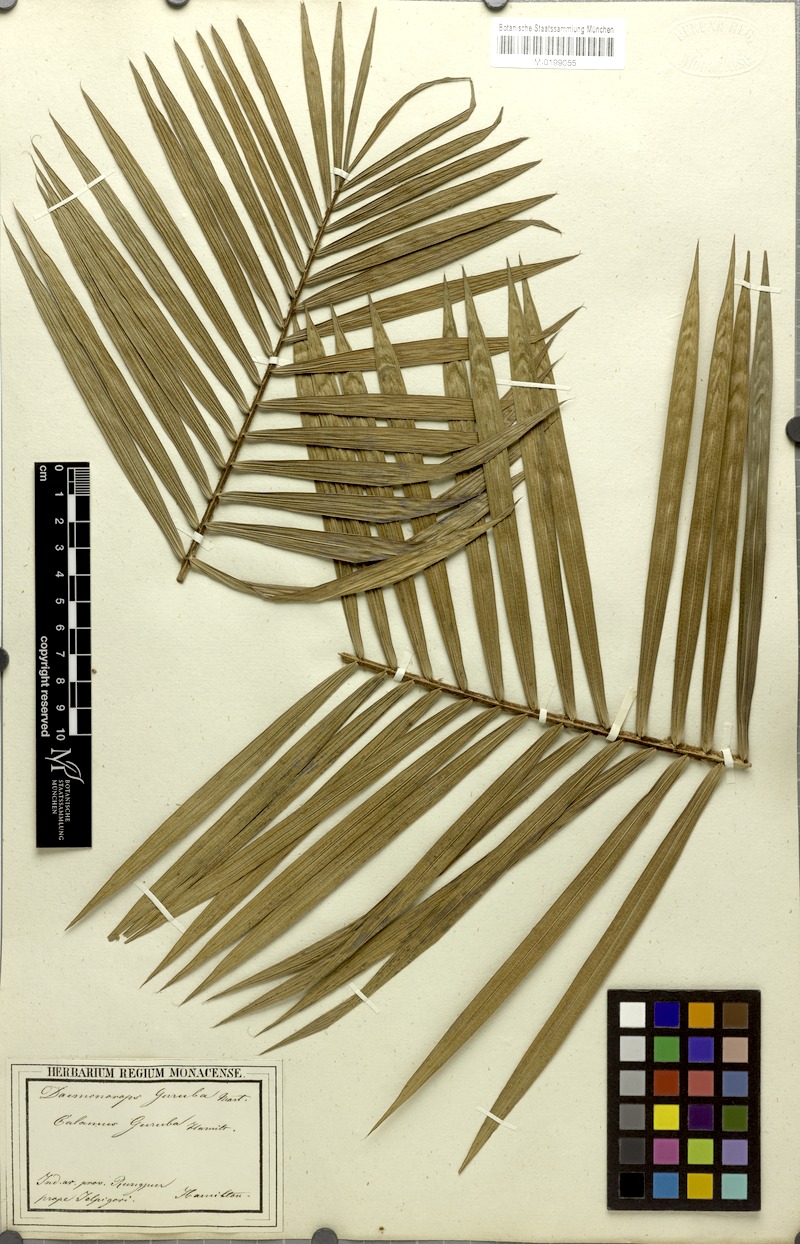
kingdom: Plantae
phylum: Tracheophyta
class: Liliopsida
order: Arecales
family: Arecaceae
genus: Calamus
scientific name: Calamus guruba
